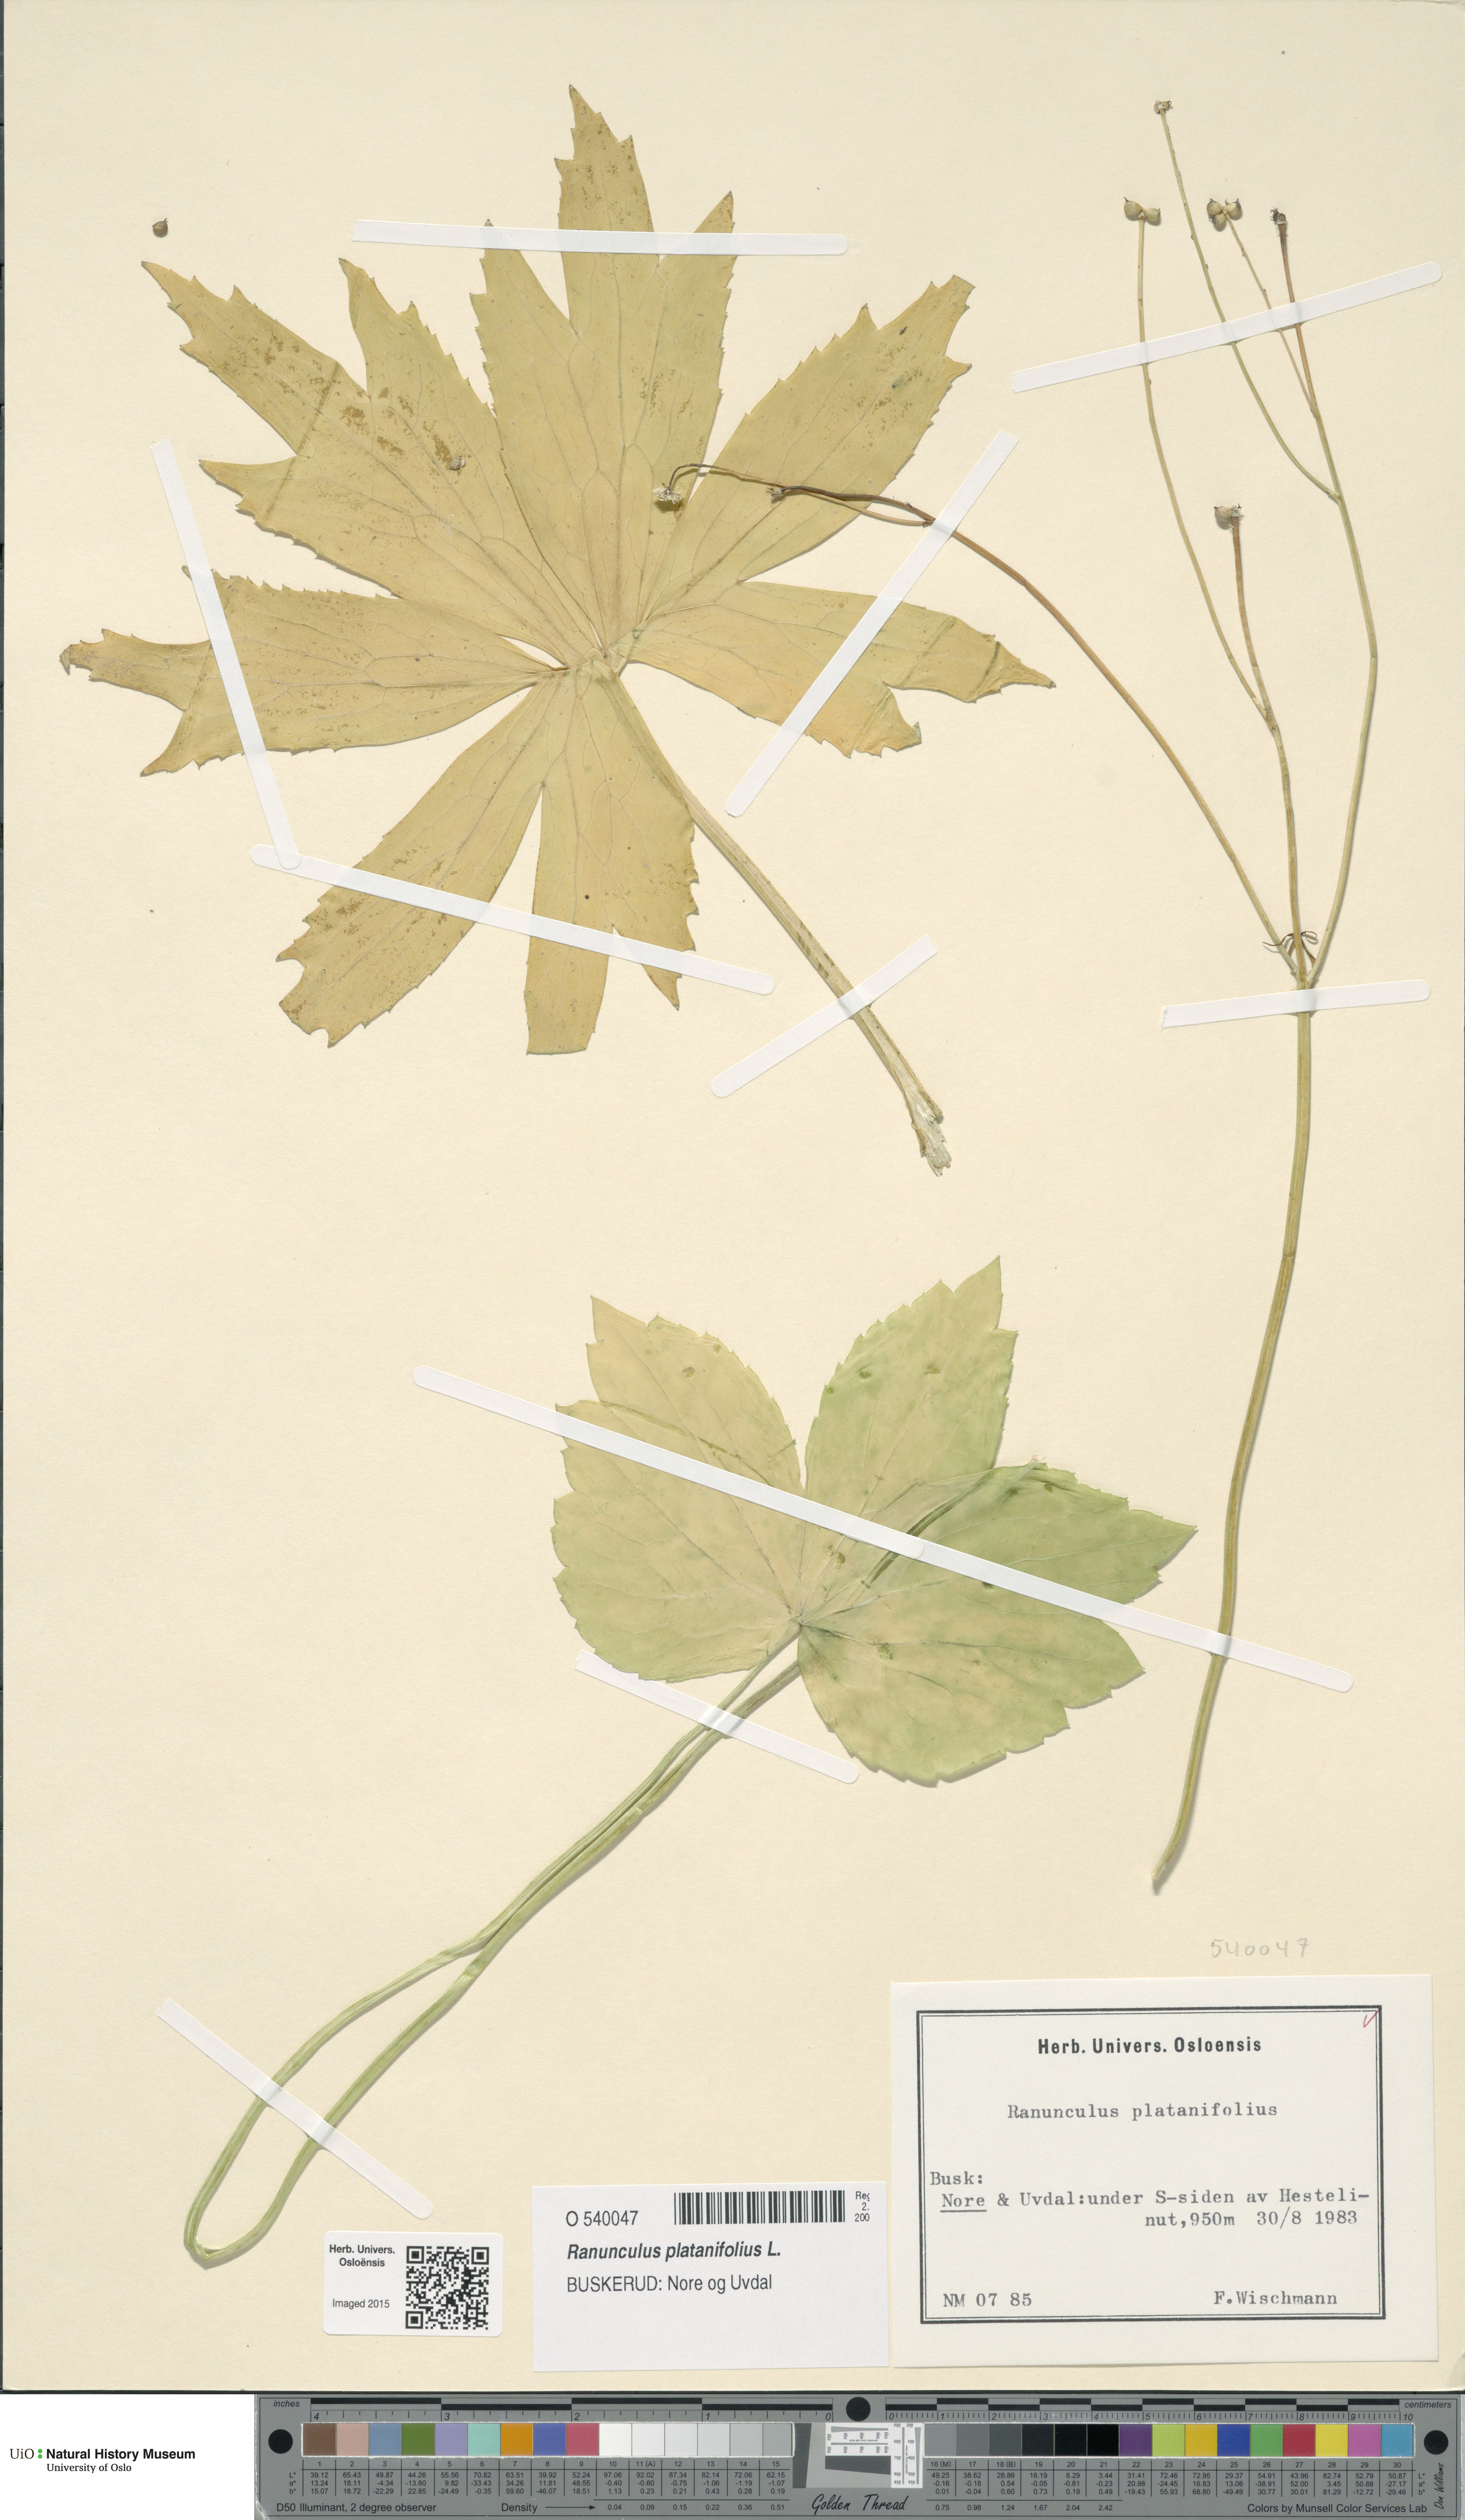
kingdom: Plantae
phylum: Tracheophyta
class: Magnoliopsida
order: Ranunculales
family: Ranunculaceae
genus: Ranunculus
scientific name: Ranunculus platanifolius
